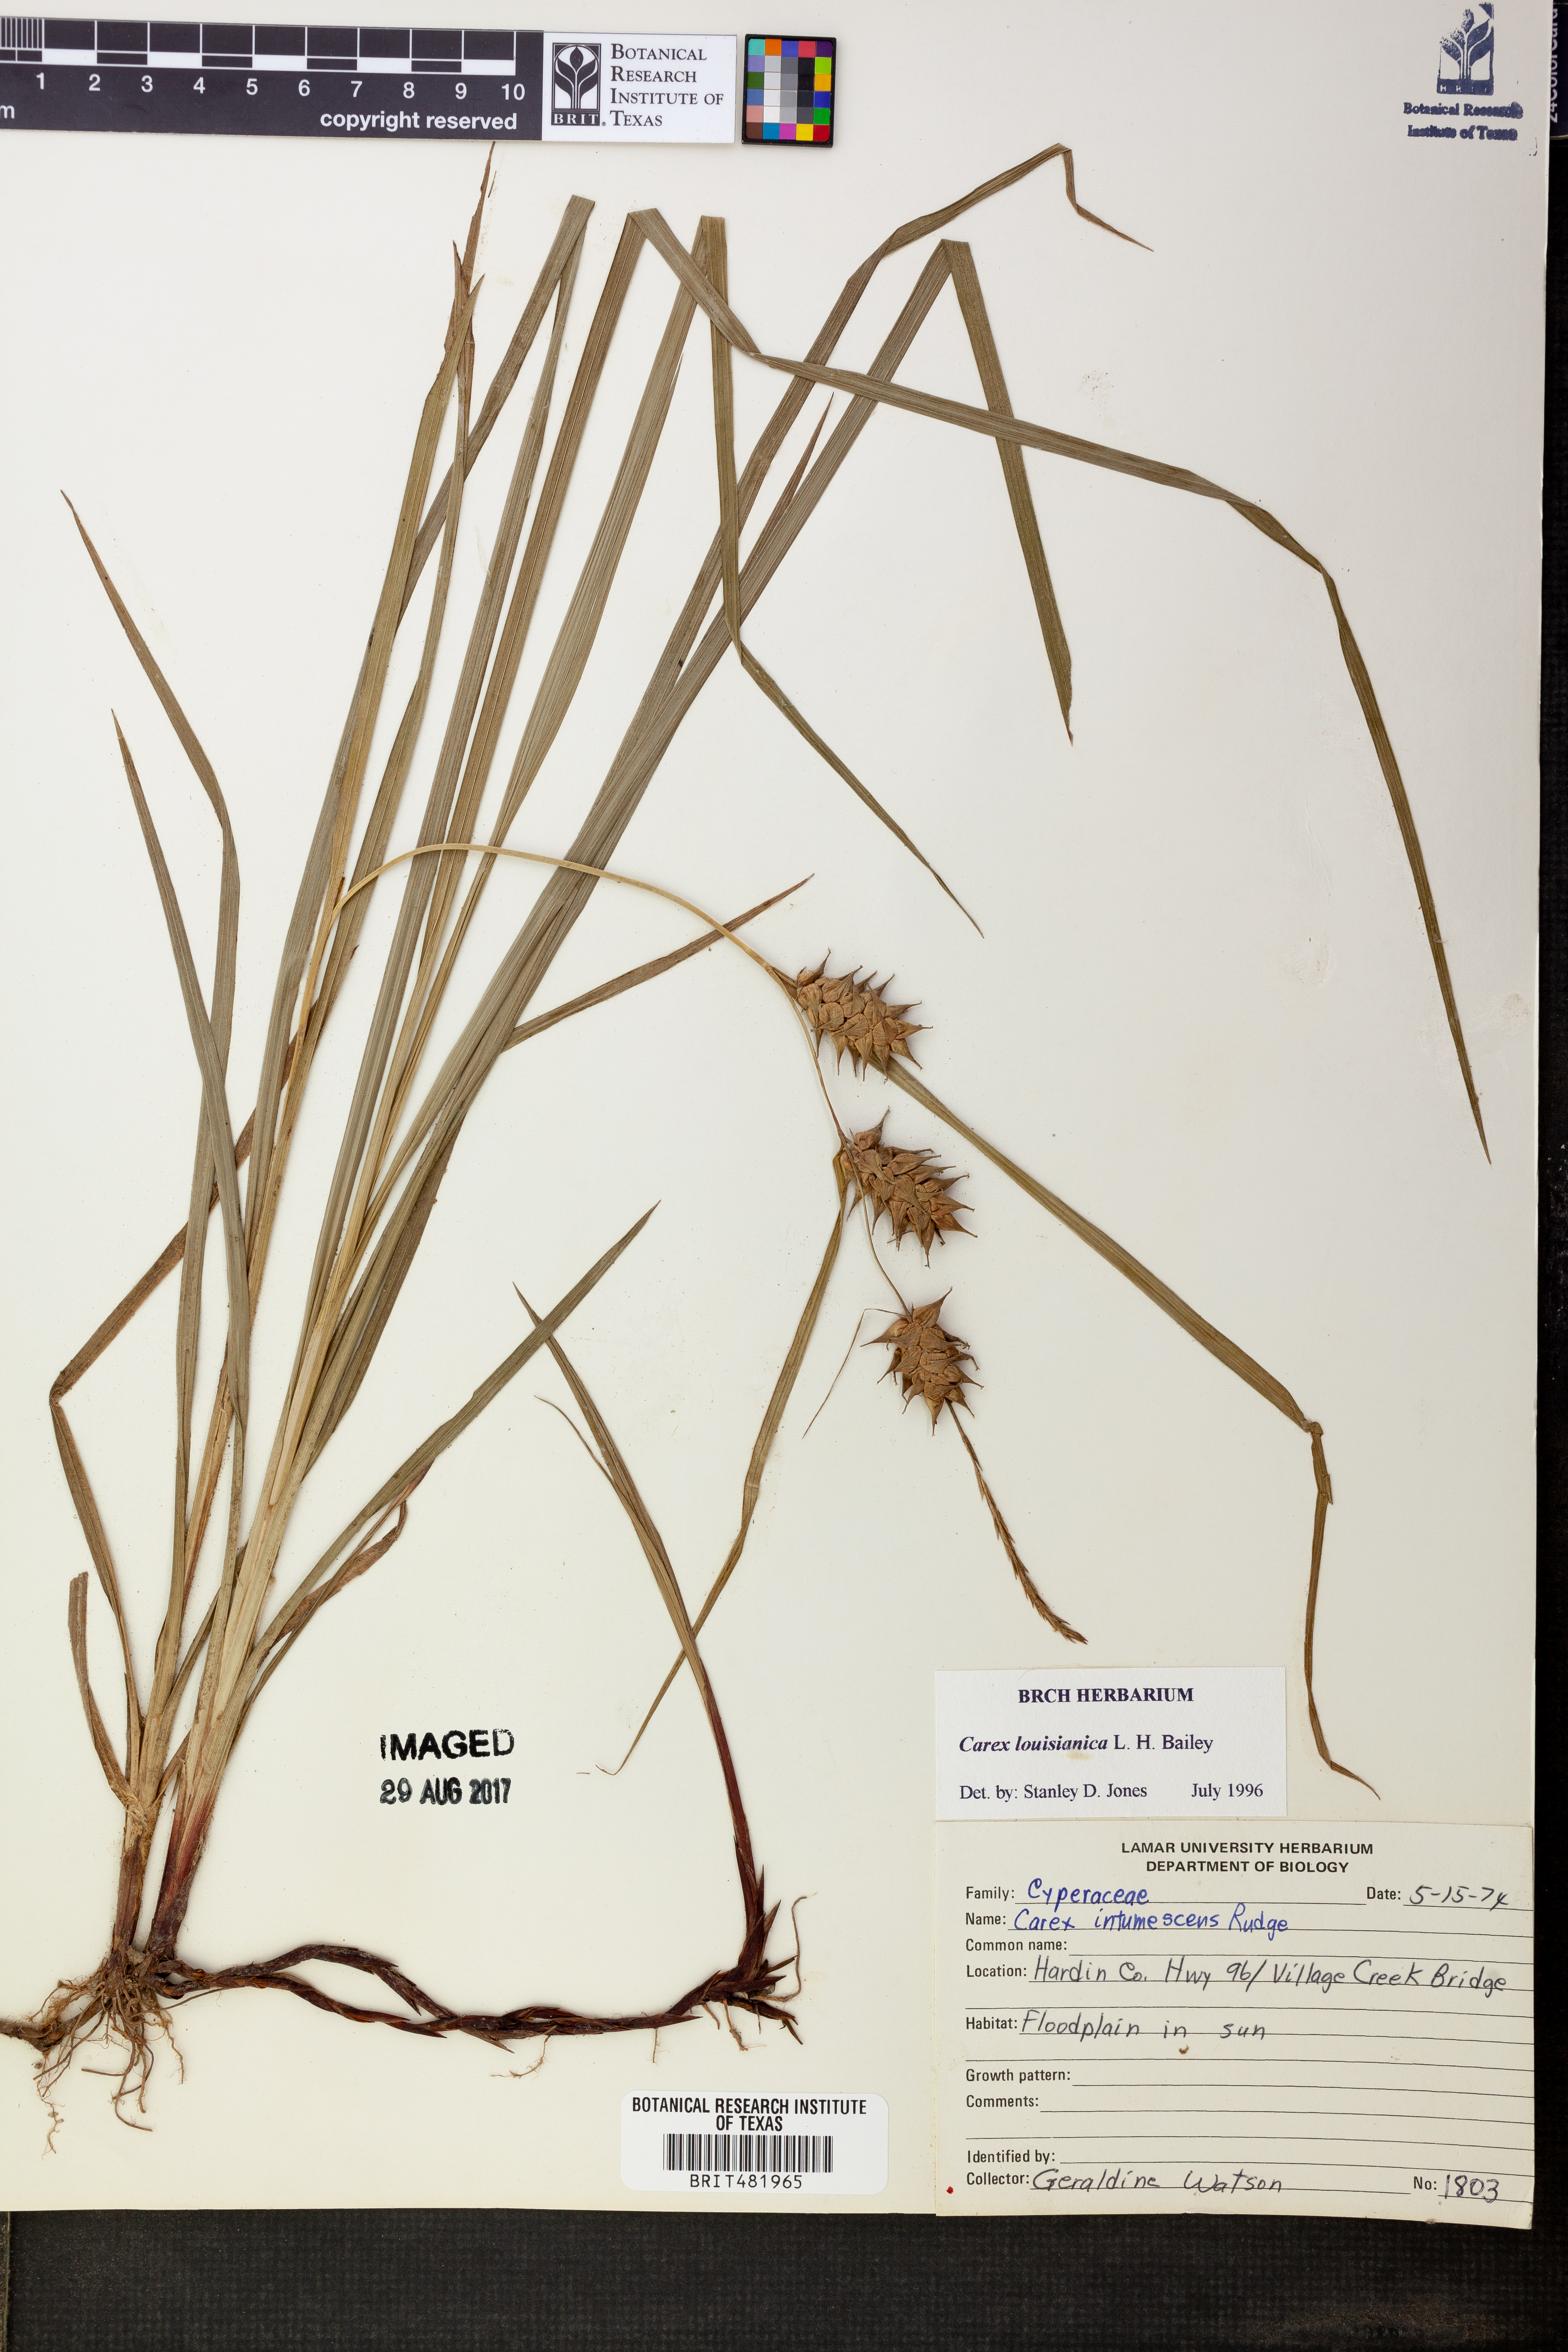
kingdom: Plantae
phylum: Tracheophyta
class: Liliopsida
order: Poales
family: Cyperaceae
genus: Carex
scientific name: Carex louisianica
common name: Louisiana sedge
